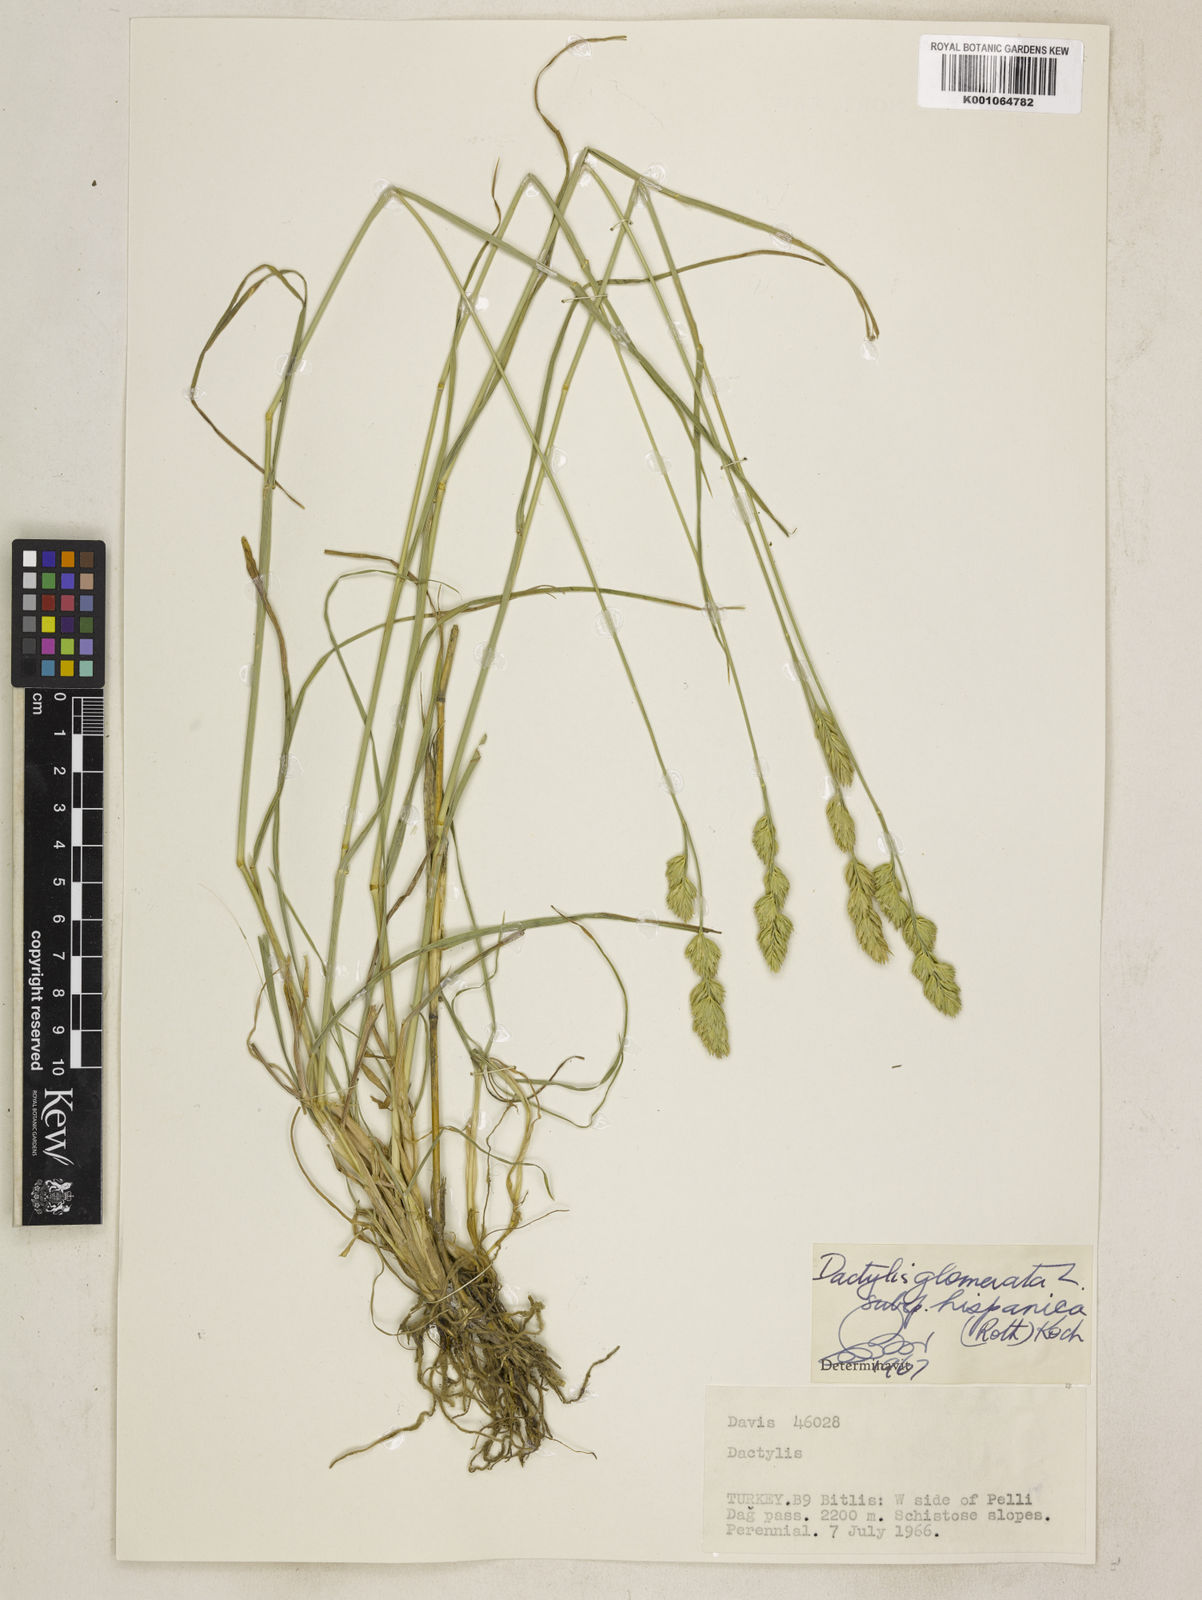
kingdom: Plantae
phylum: Tracheophyta
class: Liliopsida
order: Poales
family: Poaceae
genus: Dactylis
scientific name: Dactylis glomerata
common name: Orchardgrass
